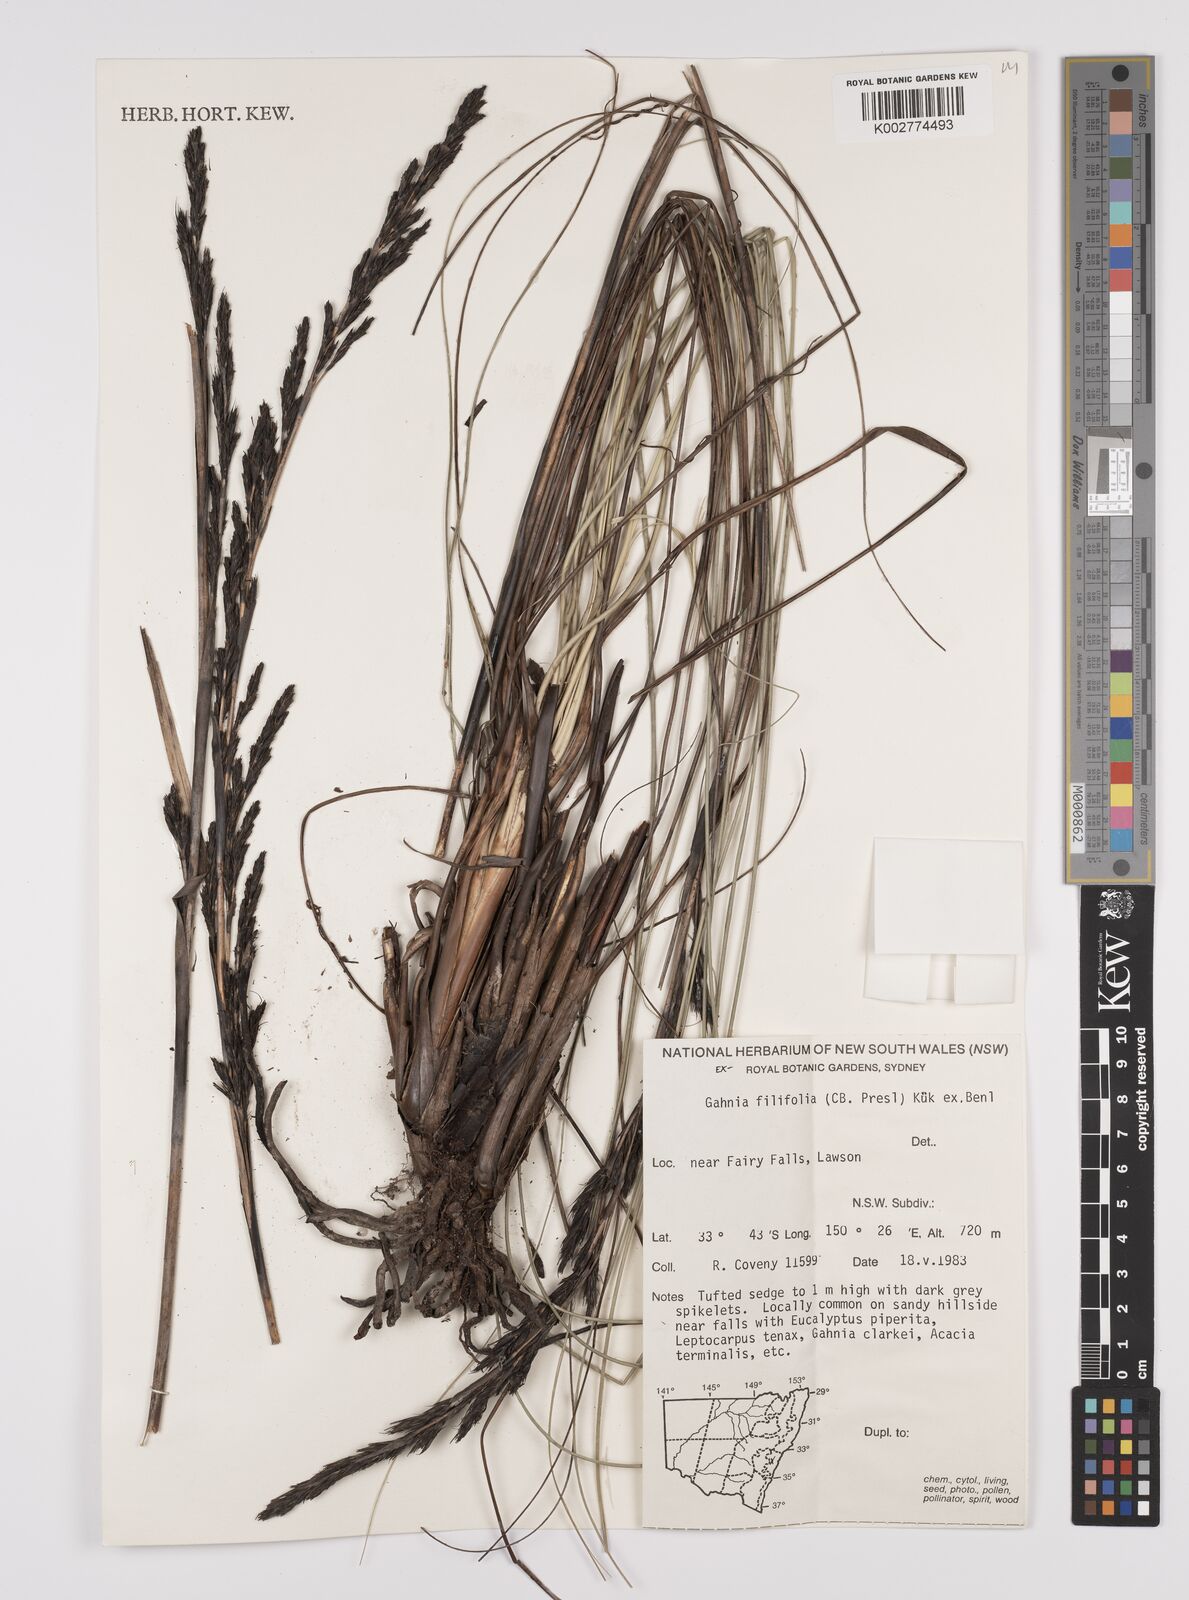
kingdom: Plantae
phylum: Tracheophyta
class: Liliopsida
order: Poales
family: Cyperaceae
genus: Gahnia
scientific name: Gahnia filifolia
